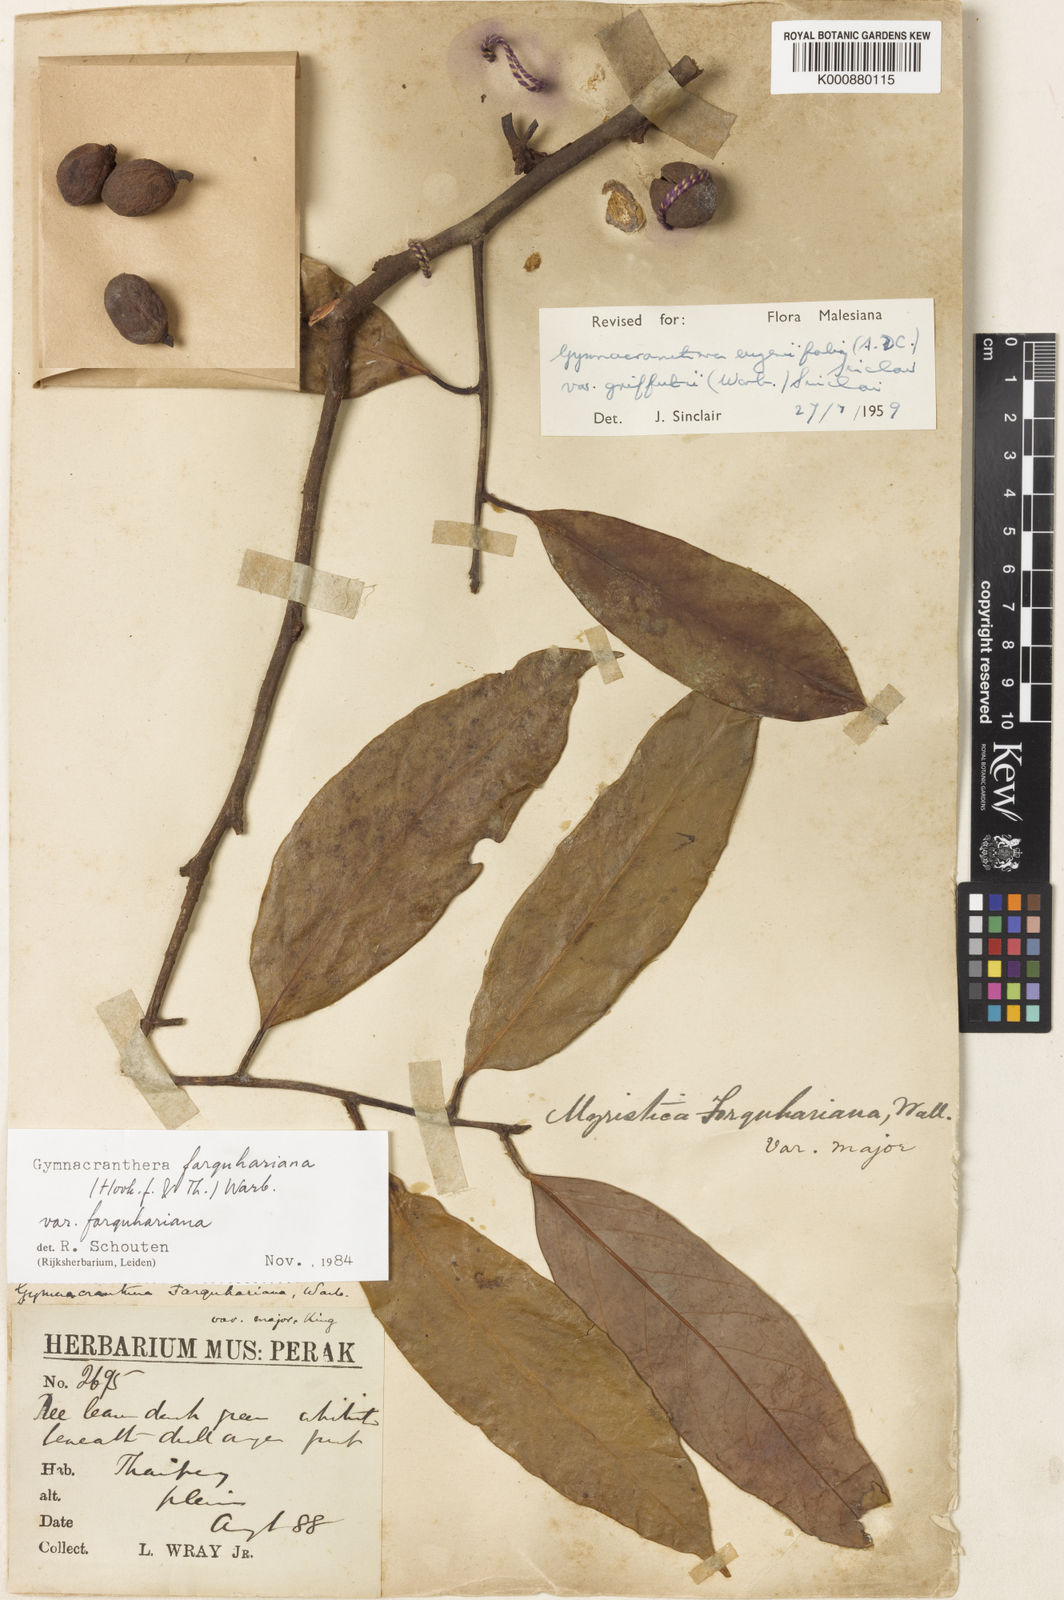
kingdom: Plantae
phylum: Tracheophyta
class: Magnoliopsida
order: Magnoliales
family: Myristicaceae
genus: Gymnacranthera
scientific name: Gymnacranthera farquhariana
